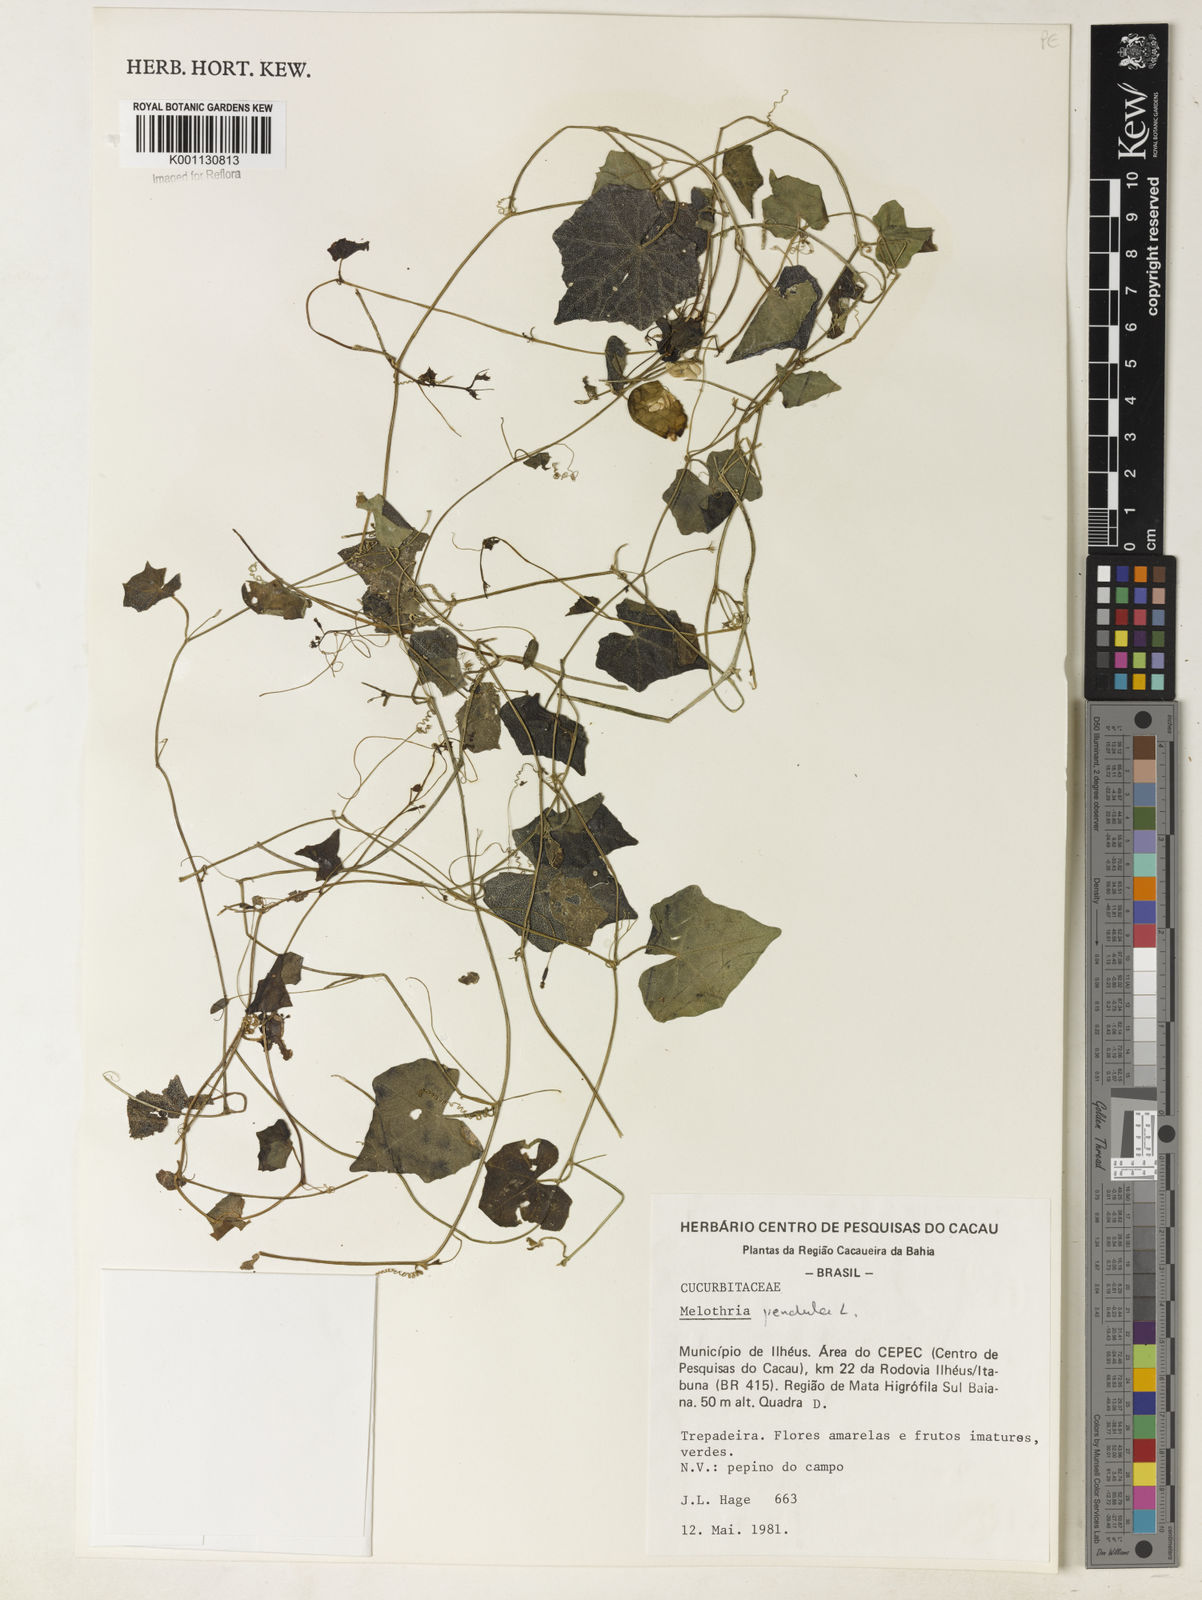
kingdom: Plantae
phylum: Tracheophyta
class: Magnoliopsida
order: Cucurbitales
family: Cucurbitaceae
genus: Melothria
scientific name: Melothria pendula
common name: Creeping-cucumber
